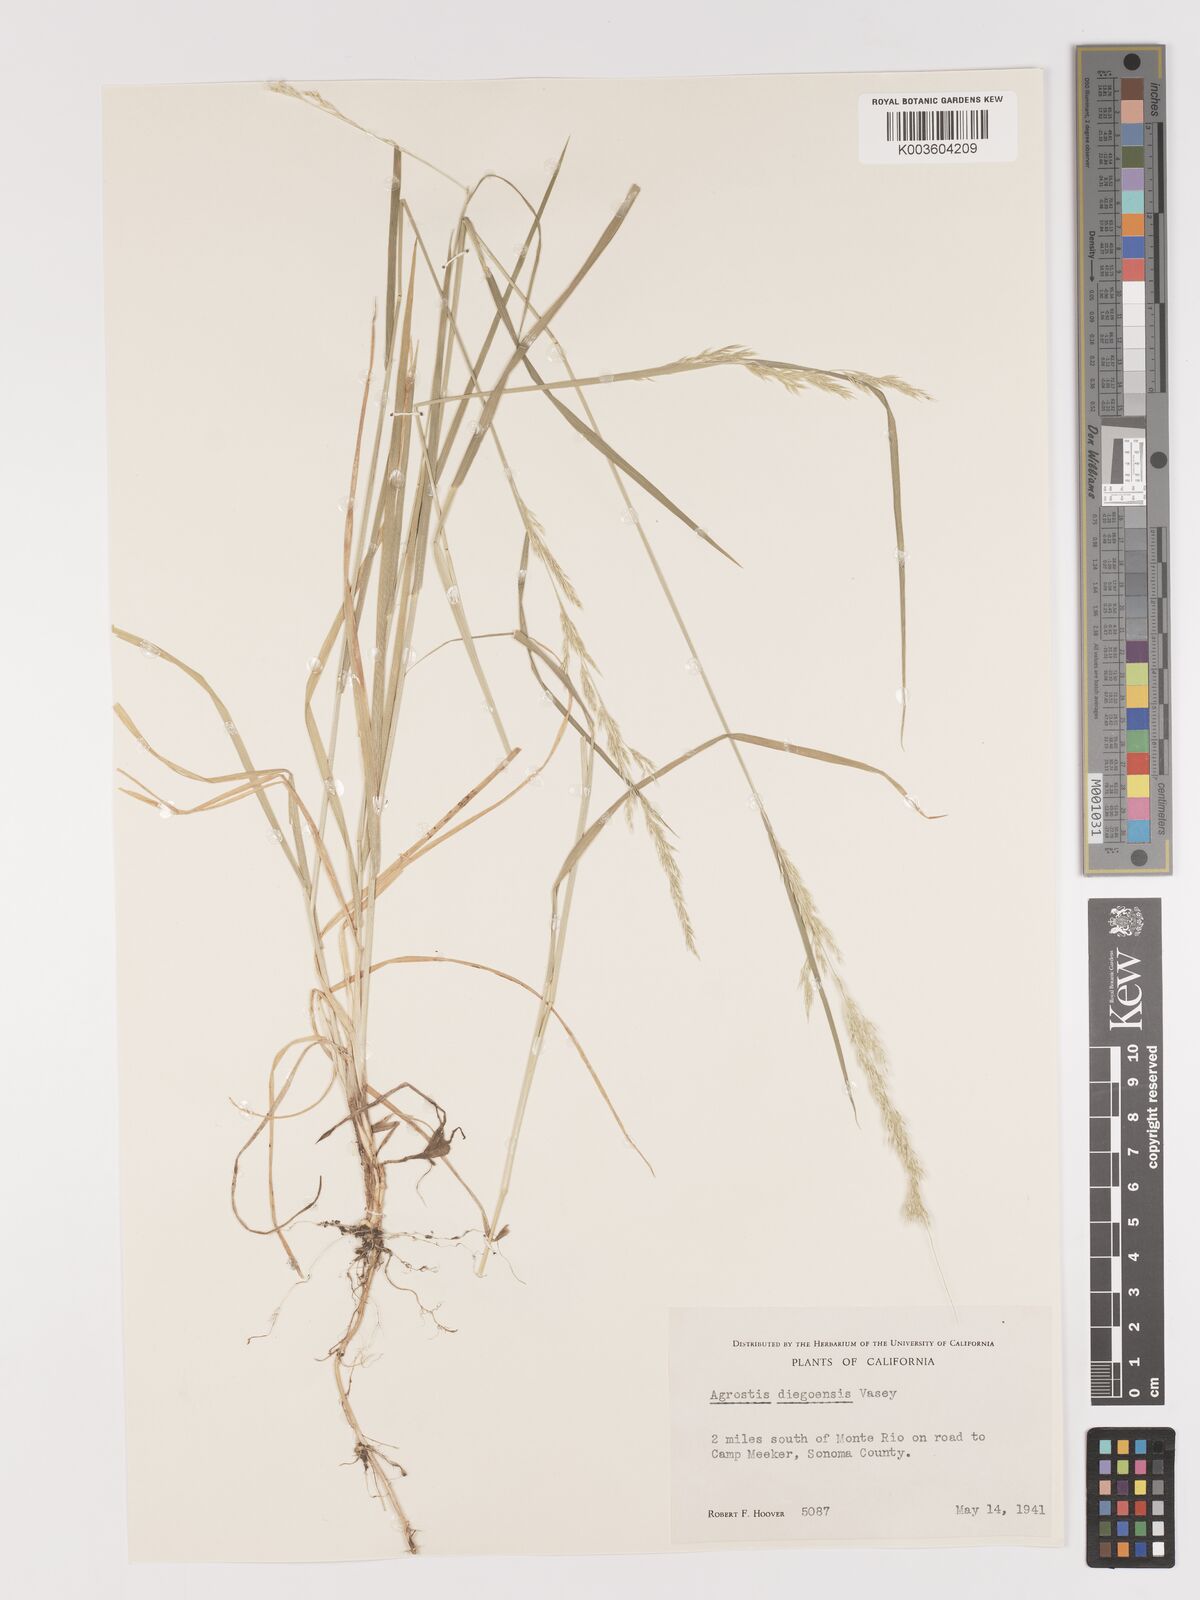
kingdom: Plantae
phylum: Tracheophyta
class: Liliopsida
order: Poales
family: Poaceae
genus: Agrostis
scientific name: Agrostis pallens
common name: Dune bent
